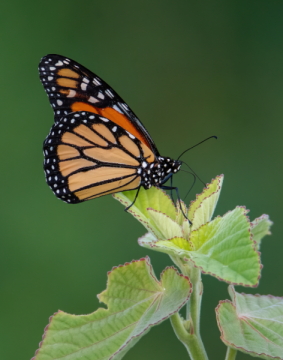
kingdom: Animalia
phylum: Arthropoda
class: Insecta
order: Lepidoptera
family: Nymphalidae
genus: Danaus
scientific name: Danaus plexippus
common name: Monarch
